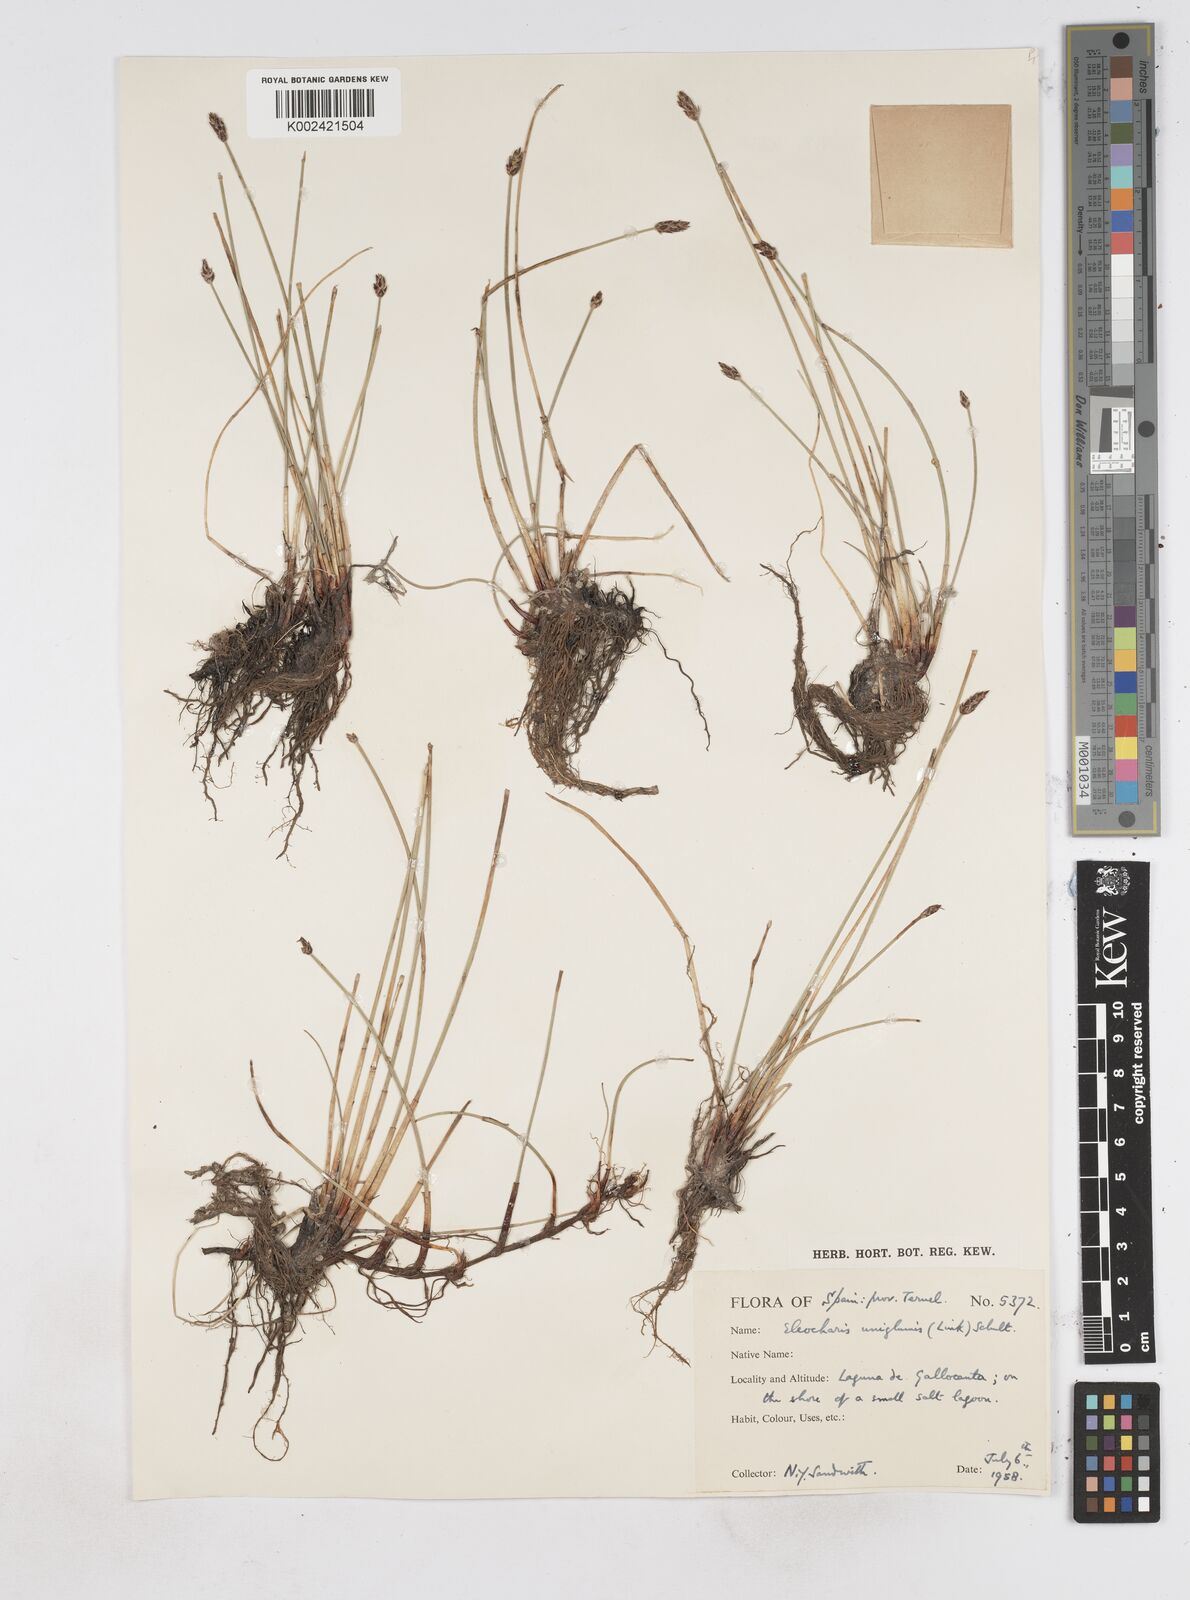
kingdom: Plantae
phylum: Tracheophyta
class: Liliopsida
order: Poales
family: Cyperaceae
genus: Eleocharis
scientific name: Eleocharis uniglumis
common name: Slender spike-rush
